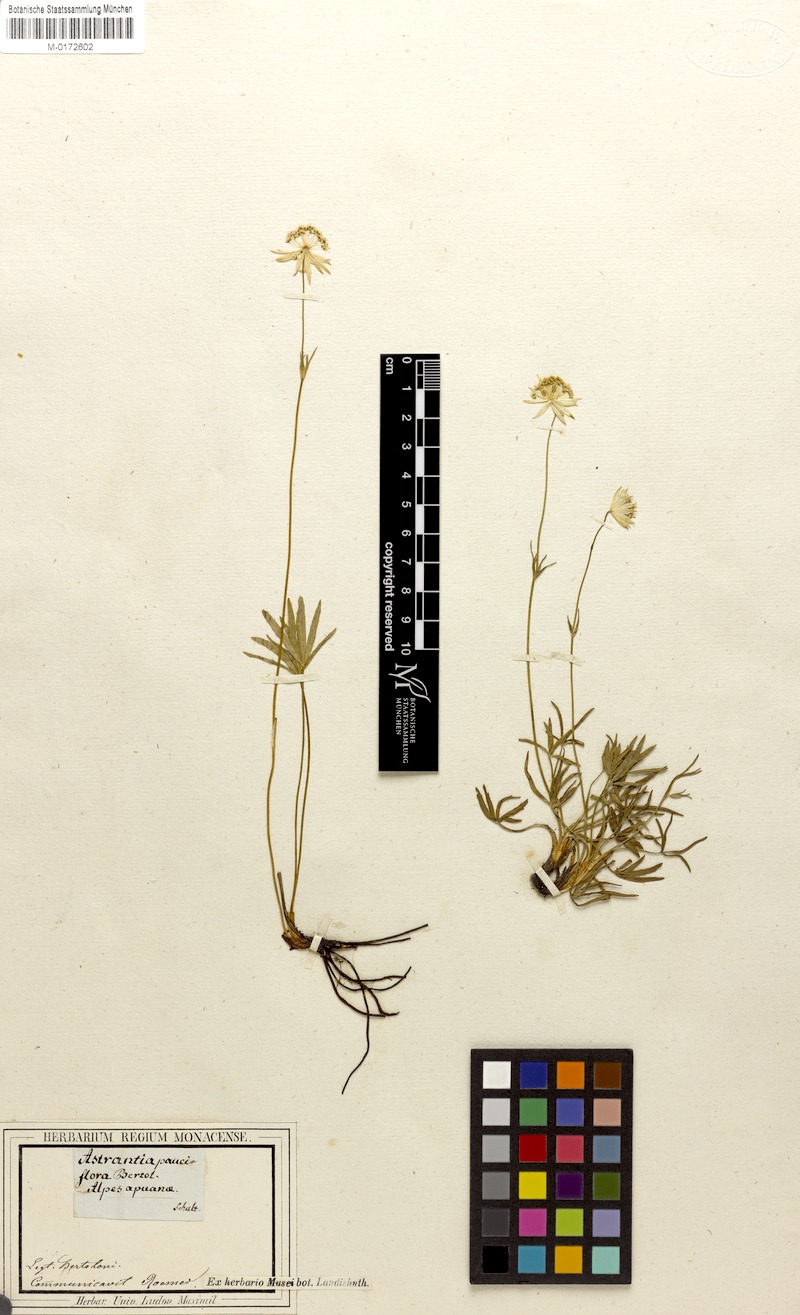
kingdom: Plantae
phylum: Tracheophyta
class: Magnoliopsida
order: Apiales
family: Apiaceae
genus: Astrantia
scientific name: Astrantia pauciflora
